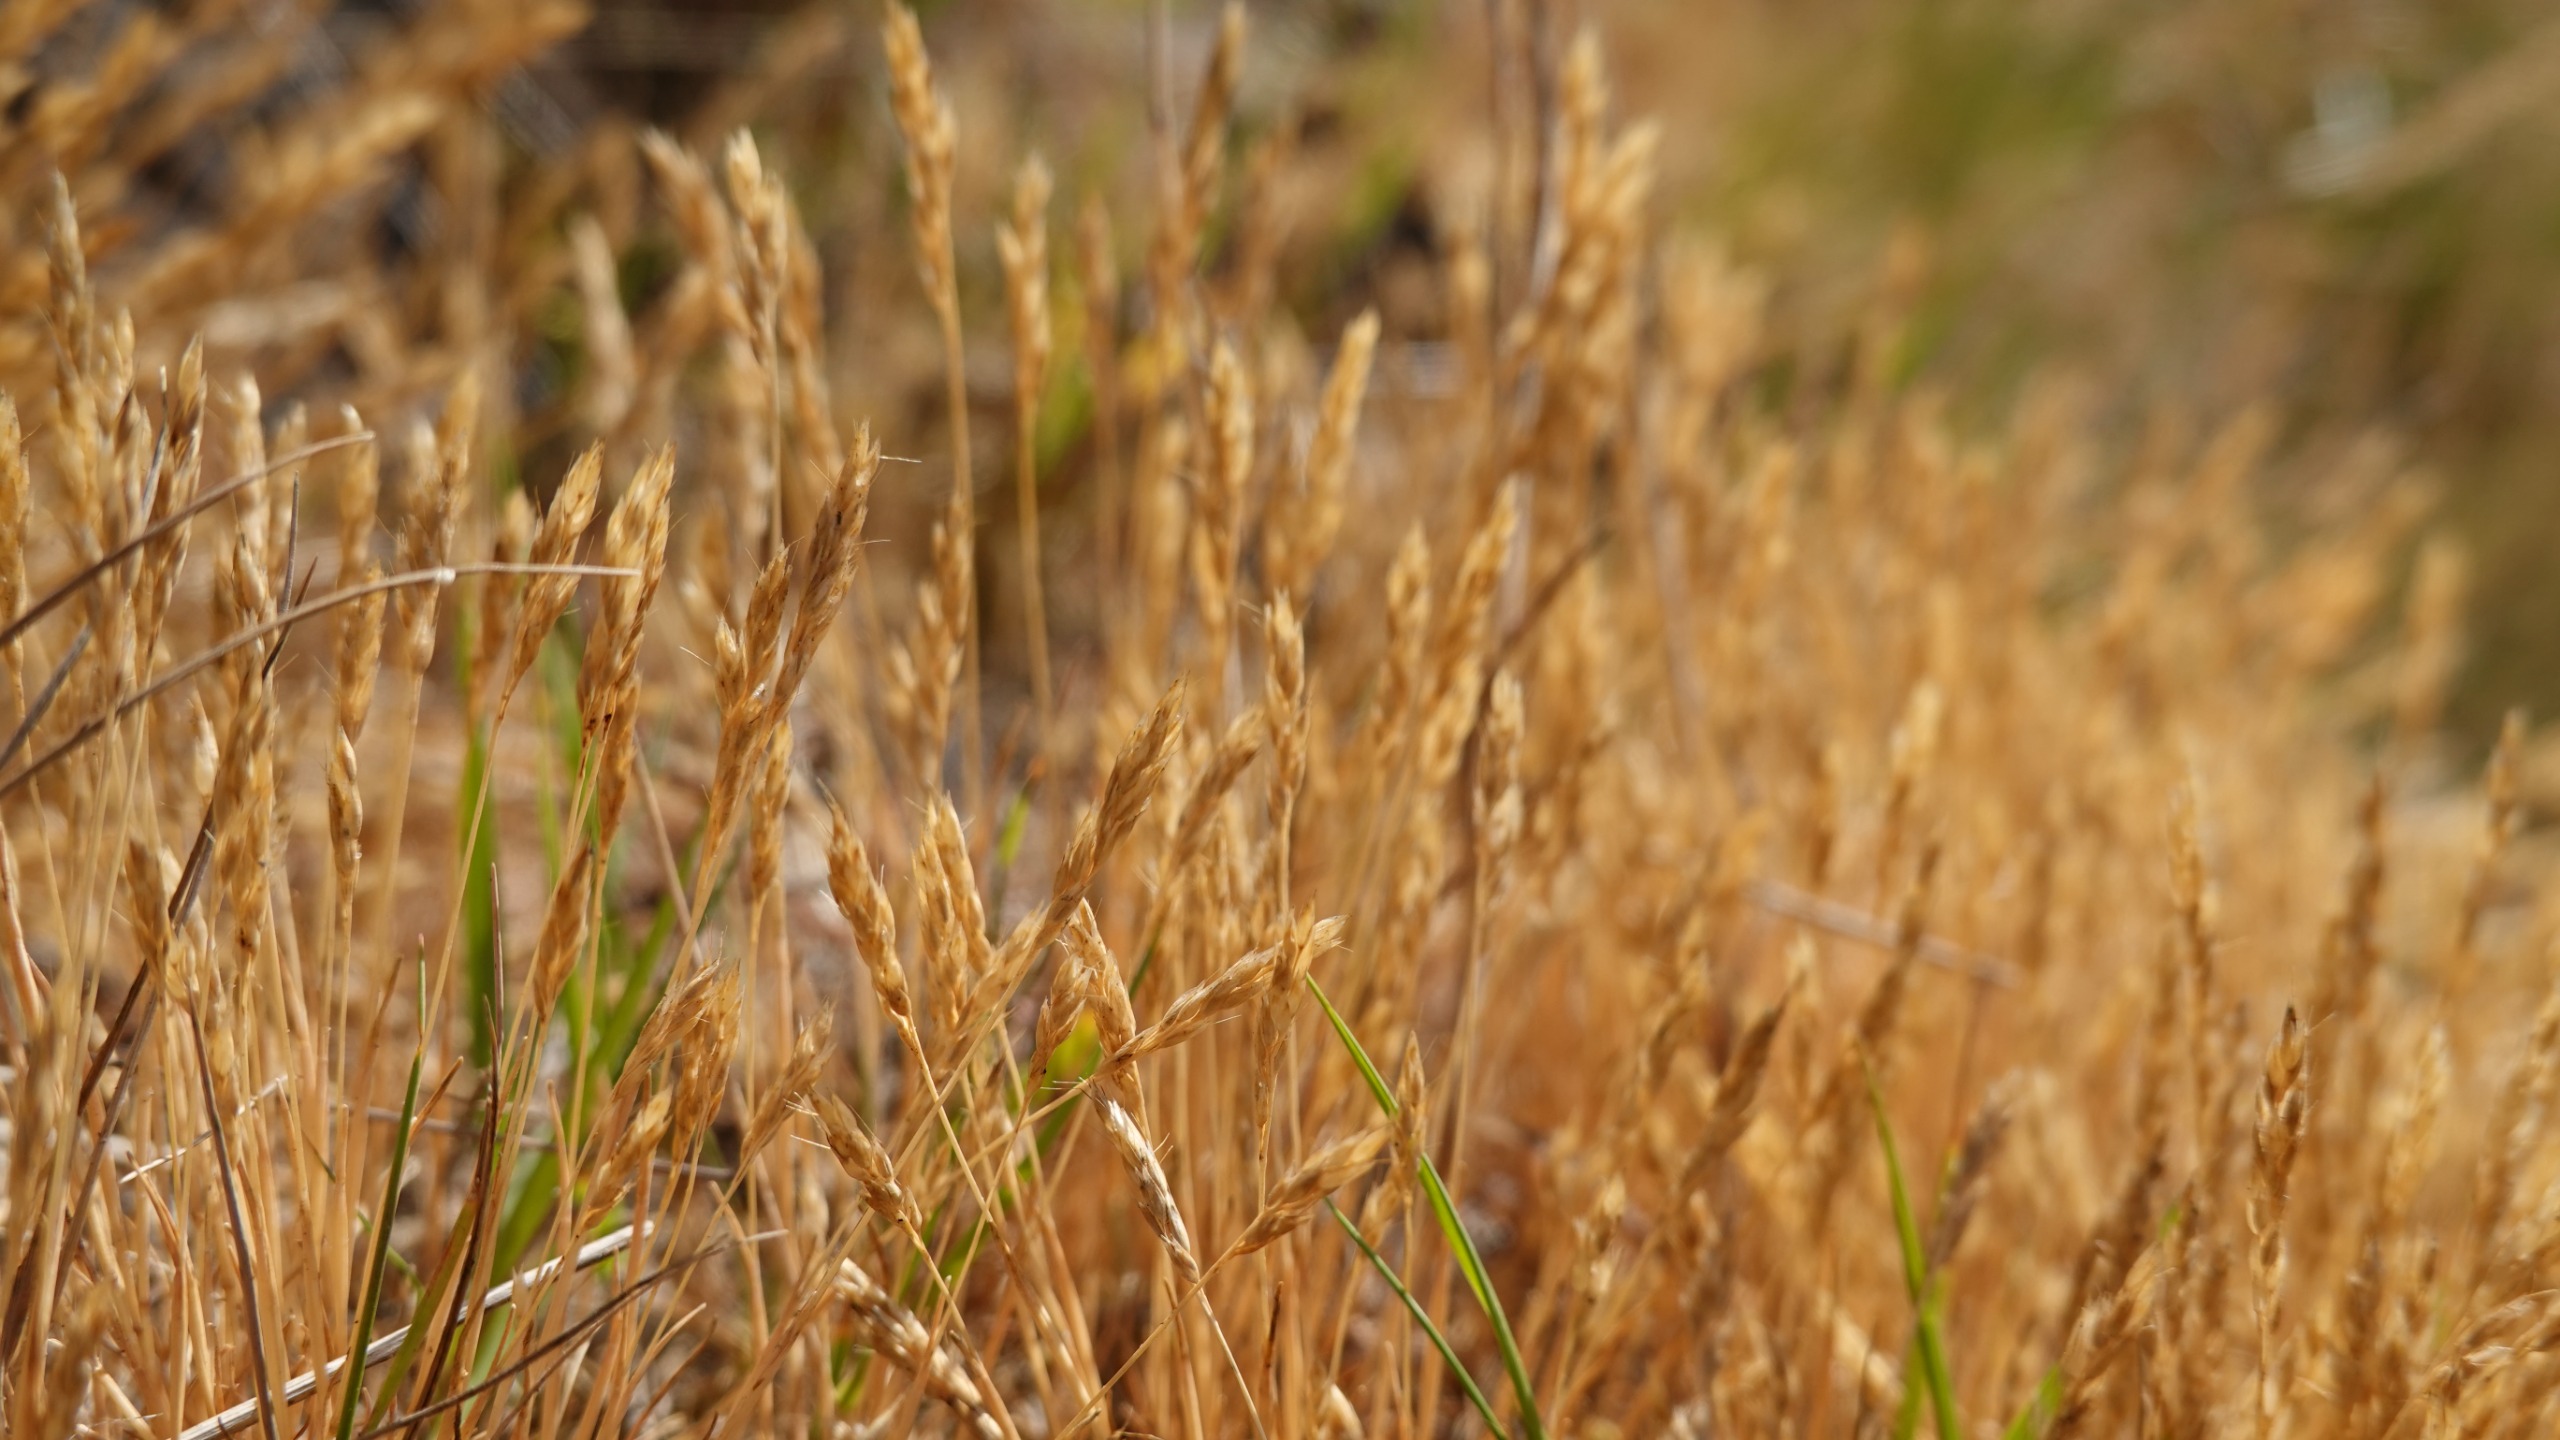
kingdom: Plantae
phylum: Tracheophyta
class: Liliopsida
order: Poales
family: Poaceae
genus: Aira
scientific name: Aira praecox
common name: Tidlig dværgbunke
